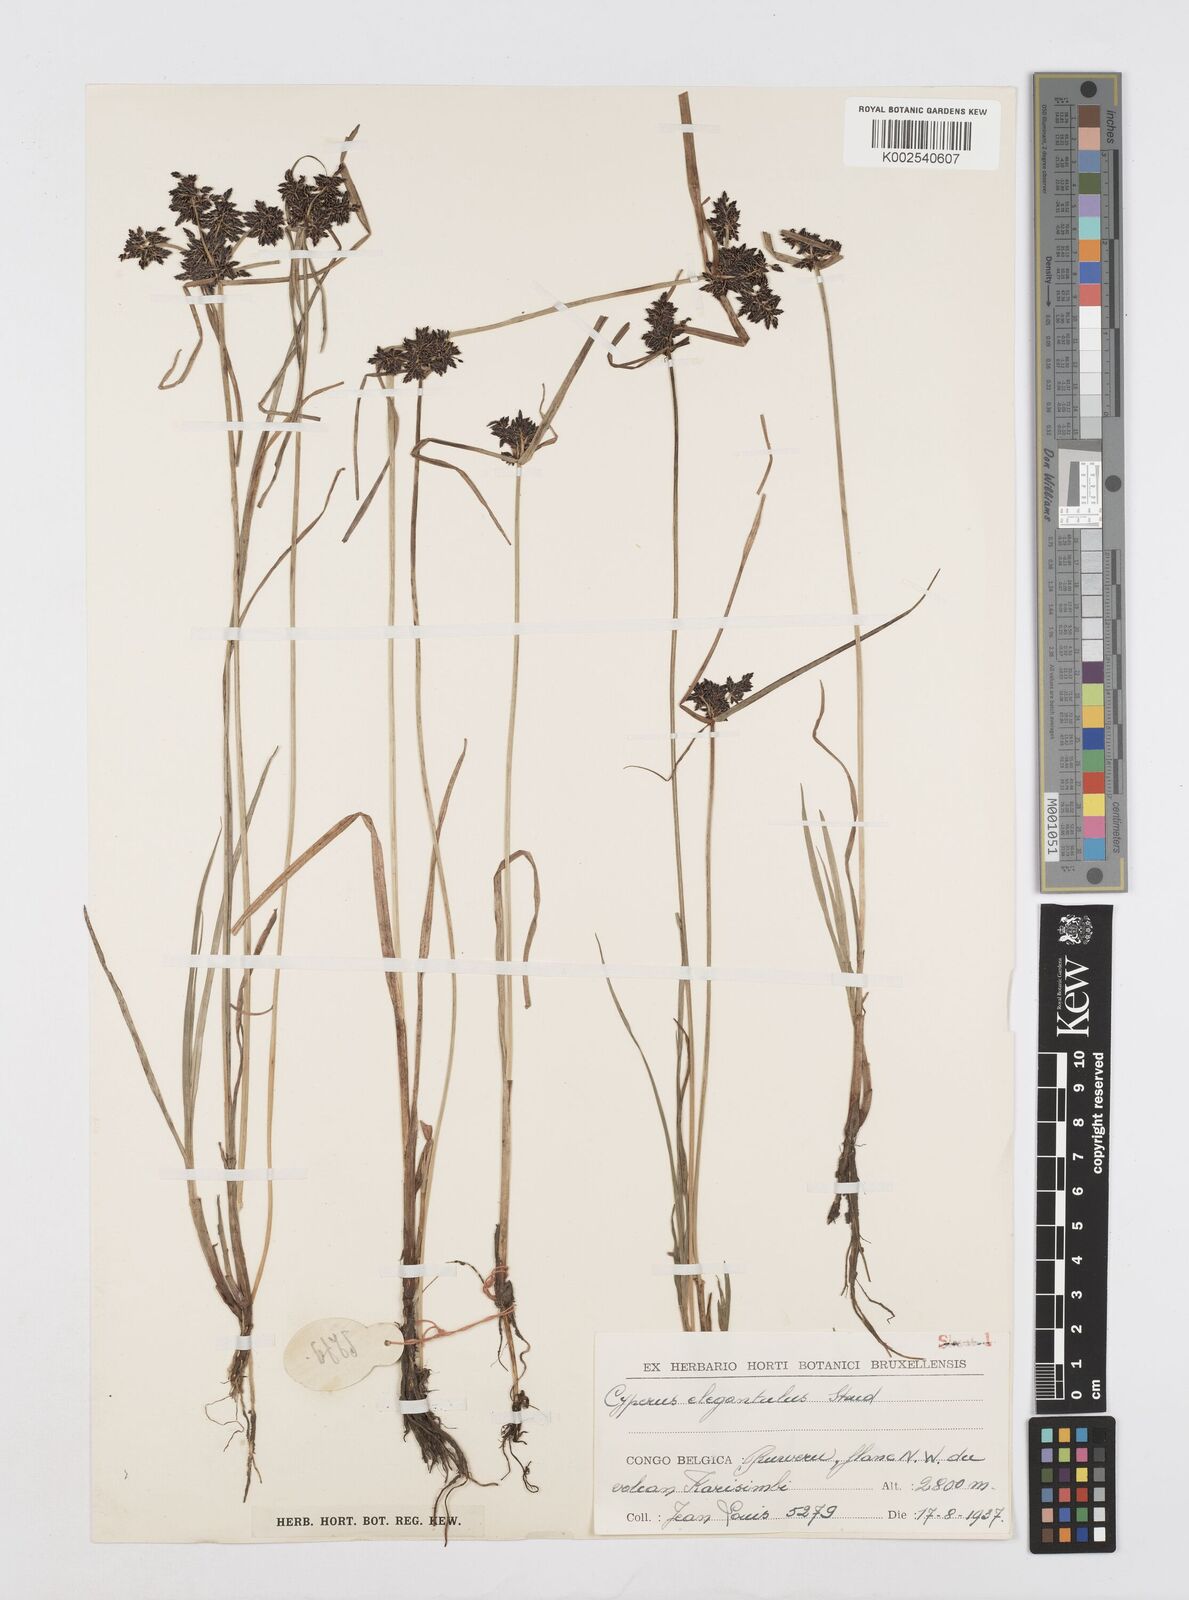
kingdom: Plantae
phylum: Tracheophyta
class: Liliopsida
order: Poales
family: Cyperaceae
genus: Cyperus
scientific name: Cyperus elegantulus
